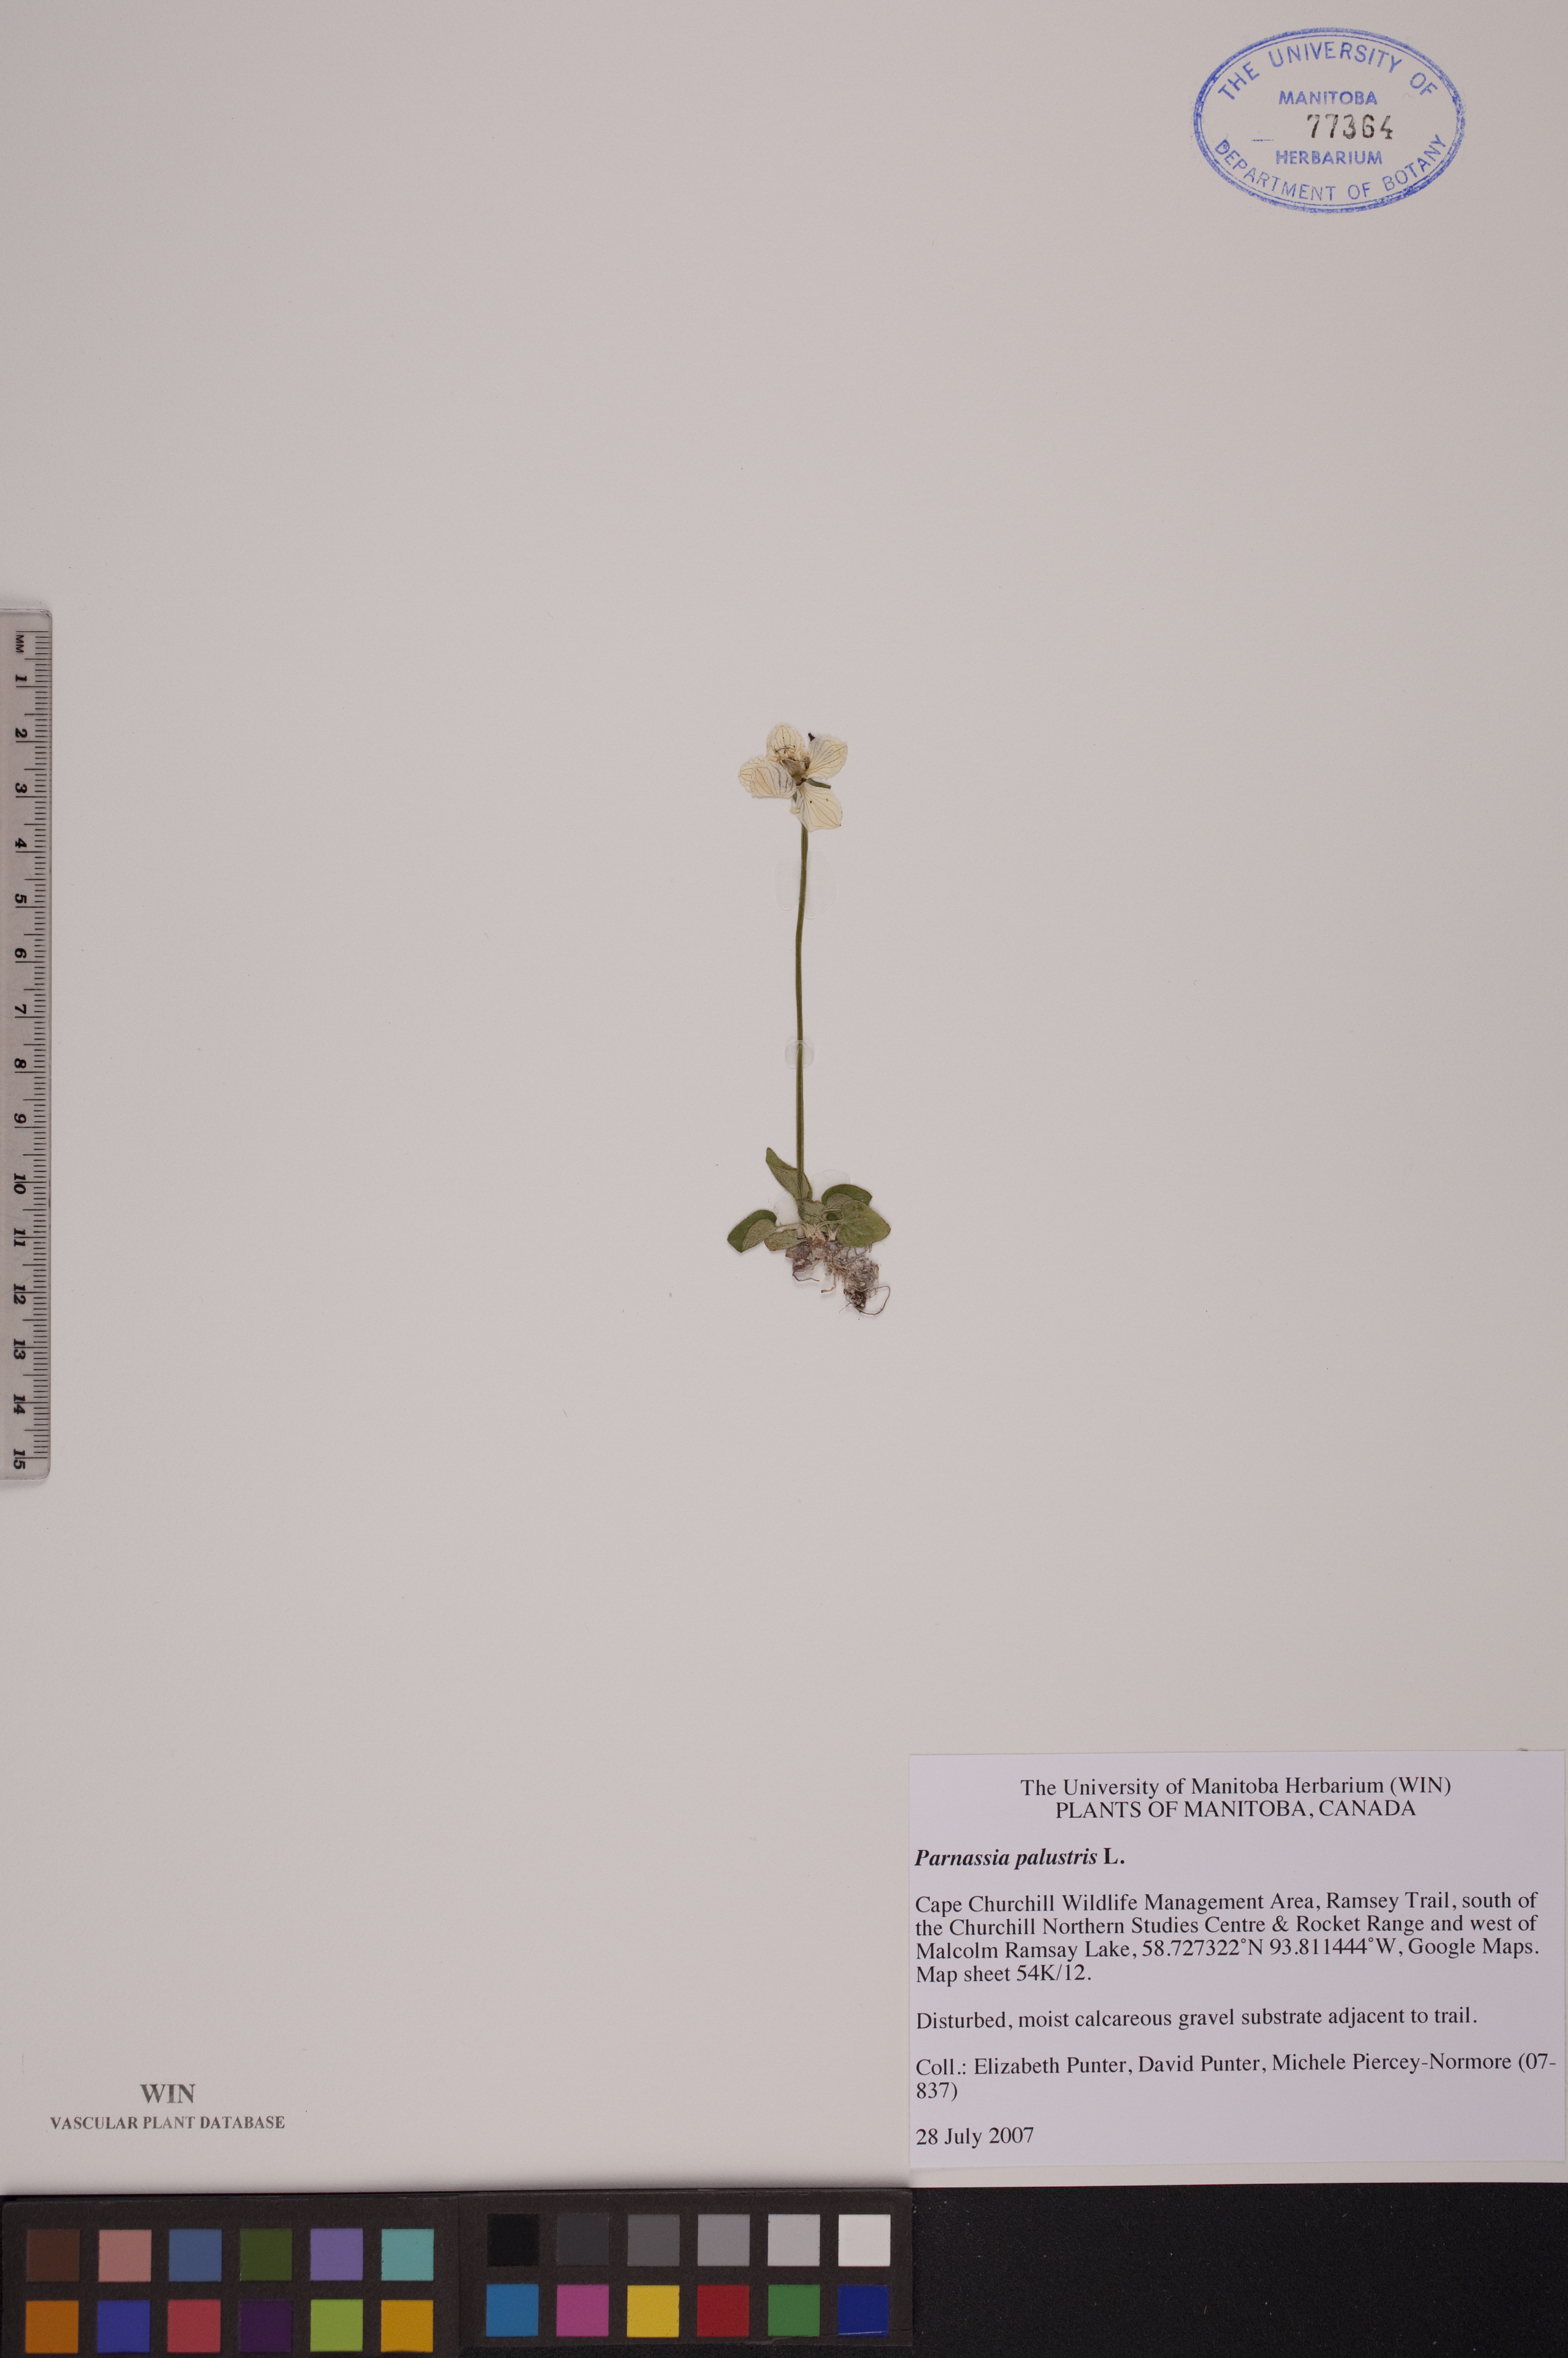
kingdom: Plantae
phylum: Tracheophyta
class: Magnoliopsida
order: Celastrales
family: Parnassiaceae
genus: Parnassia
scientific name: Parnassia palustris
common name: Grass-of-parnassus
